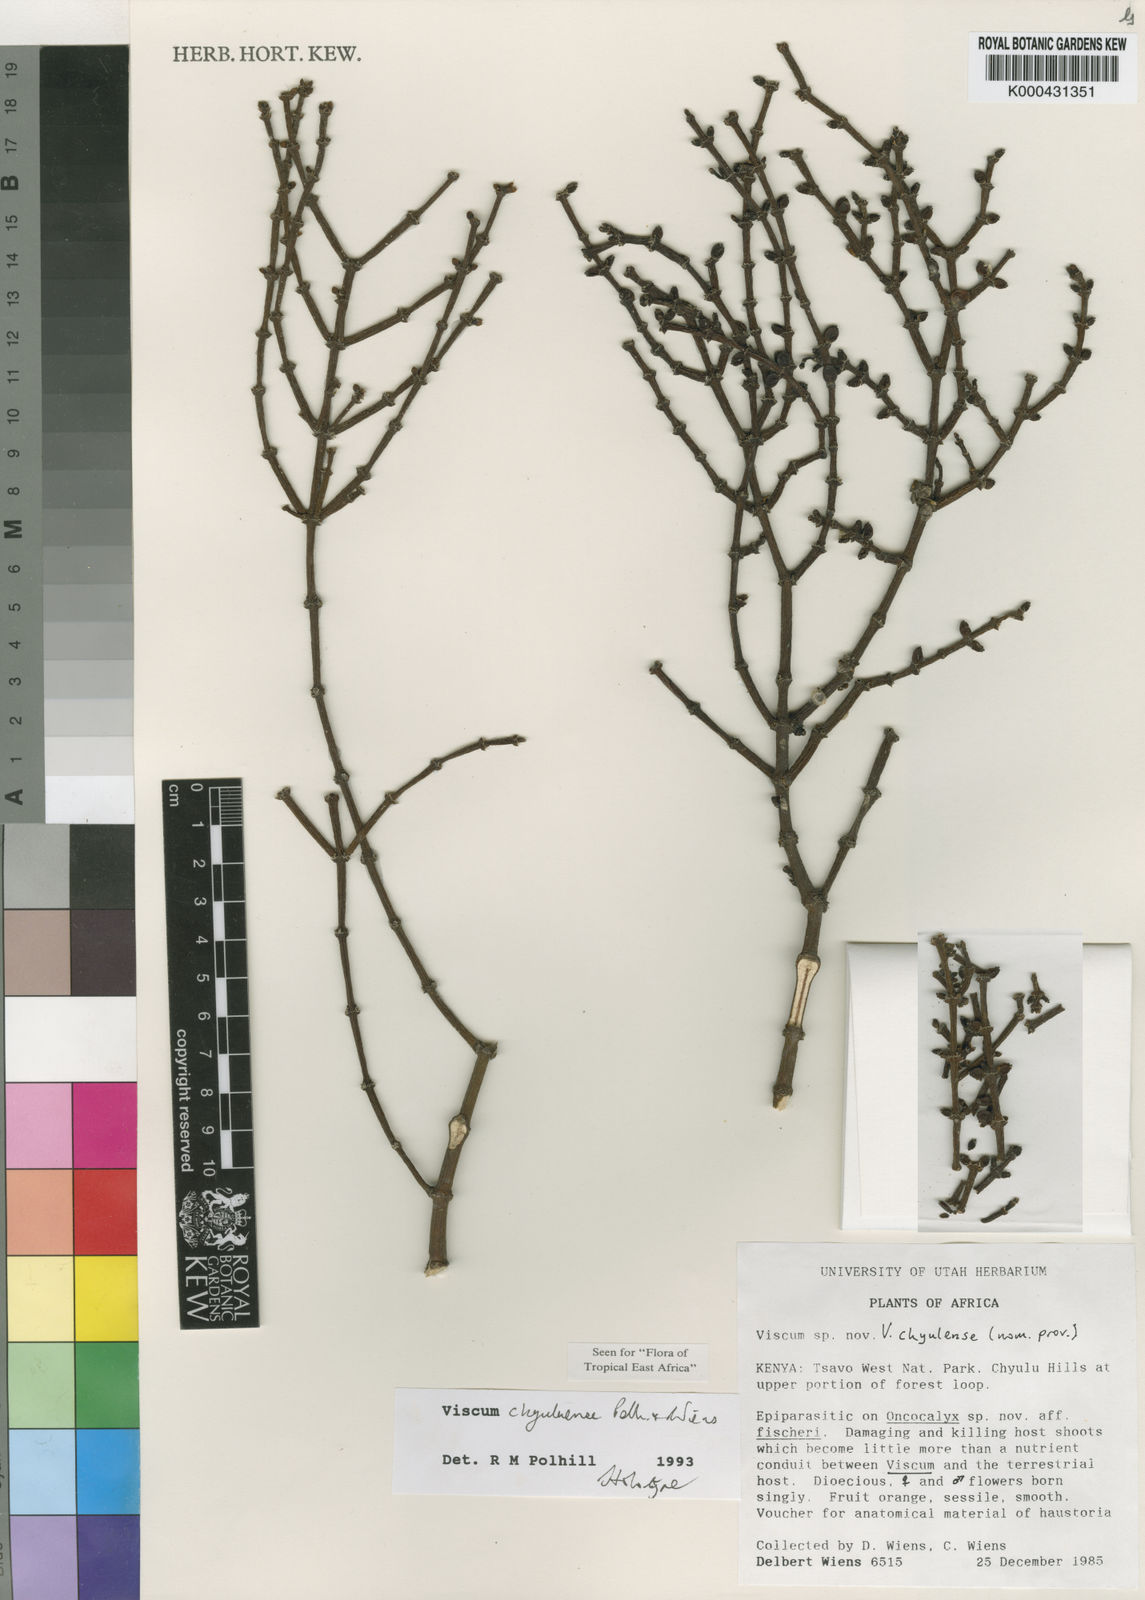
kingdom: Plantae
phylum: Tracheophyta
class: Magnoliopsida
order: Santalales
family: Viscaceae
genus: Viscum
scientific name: Viscum chyuluense
